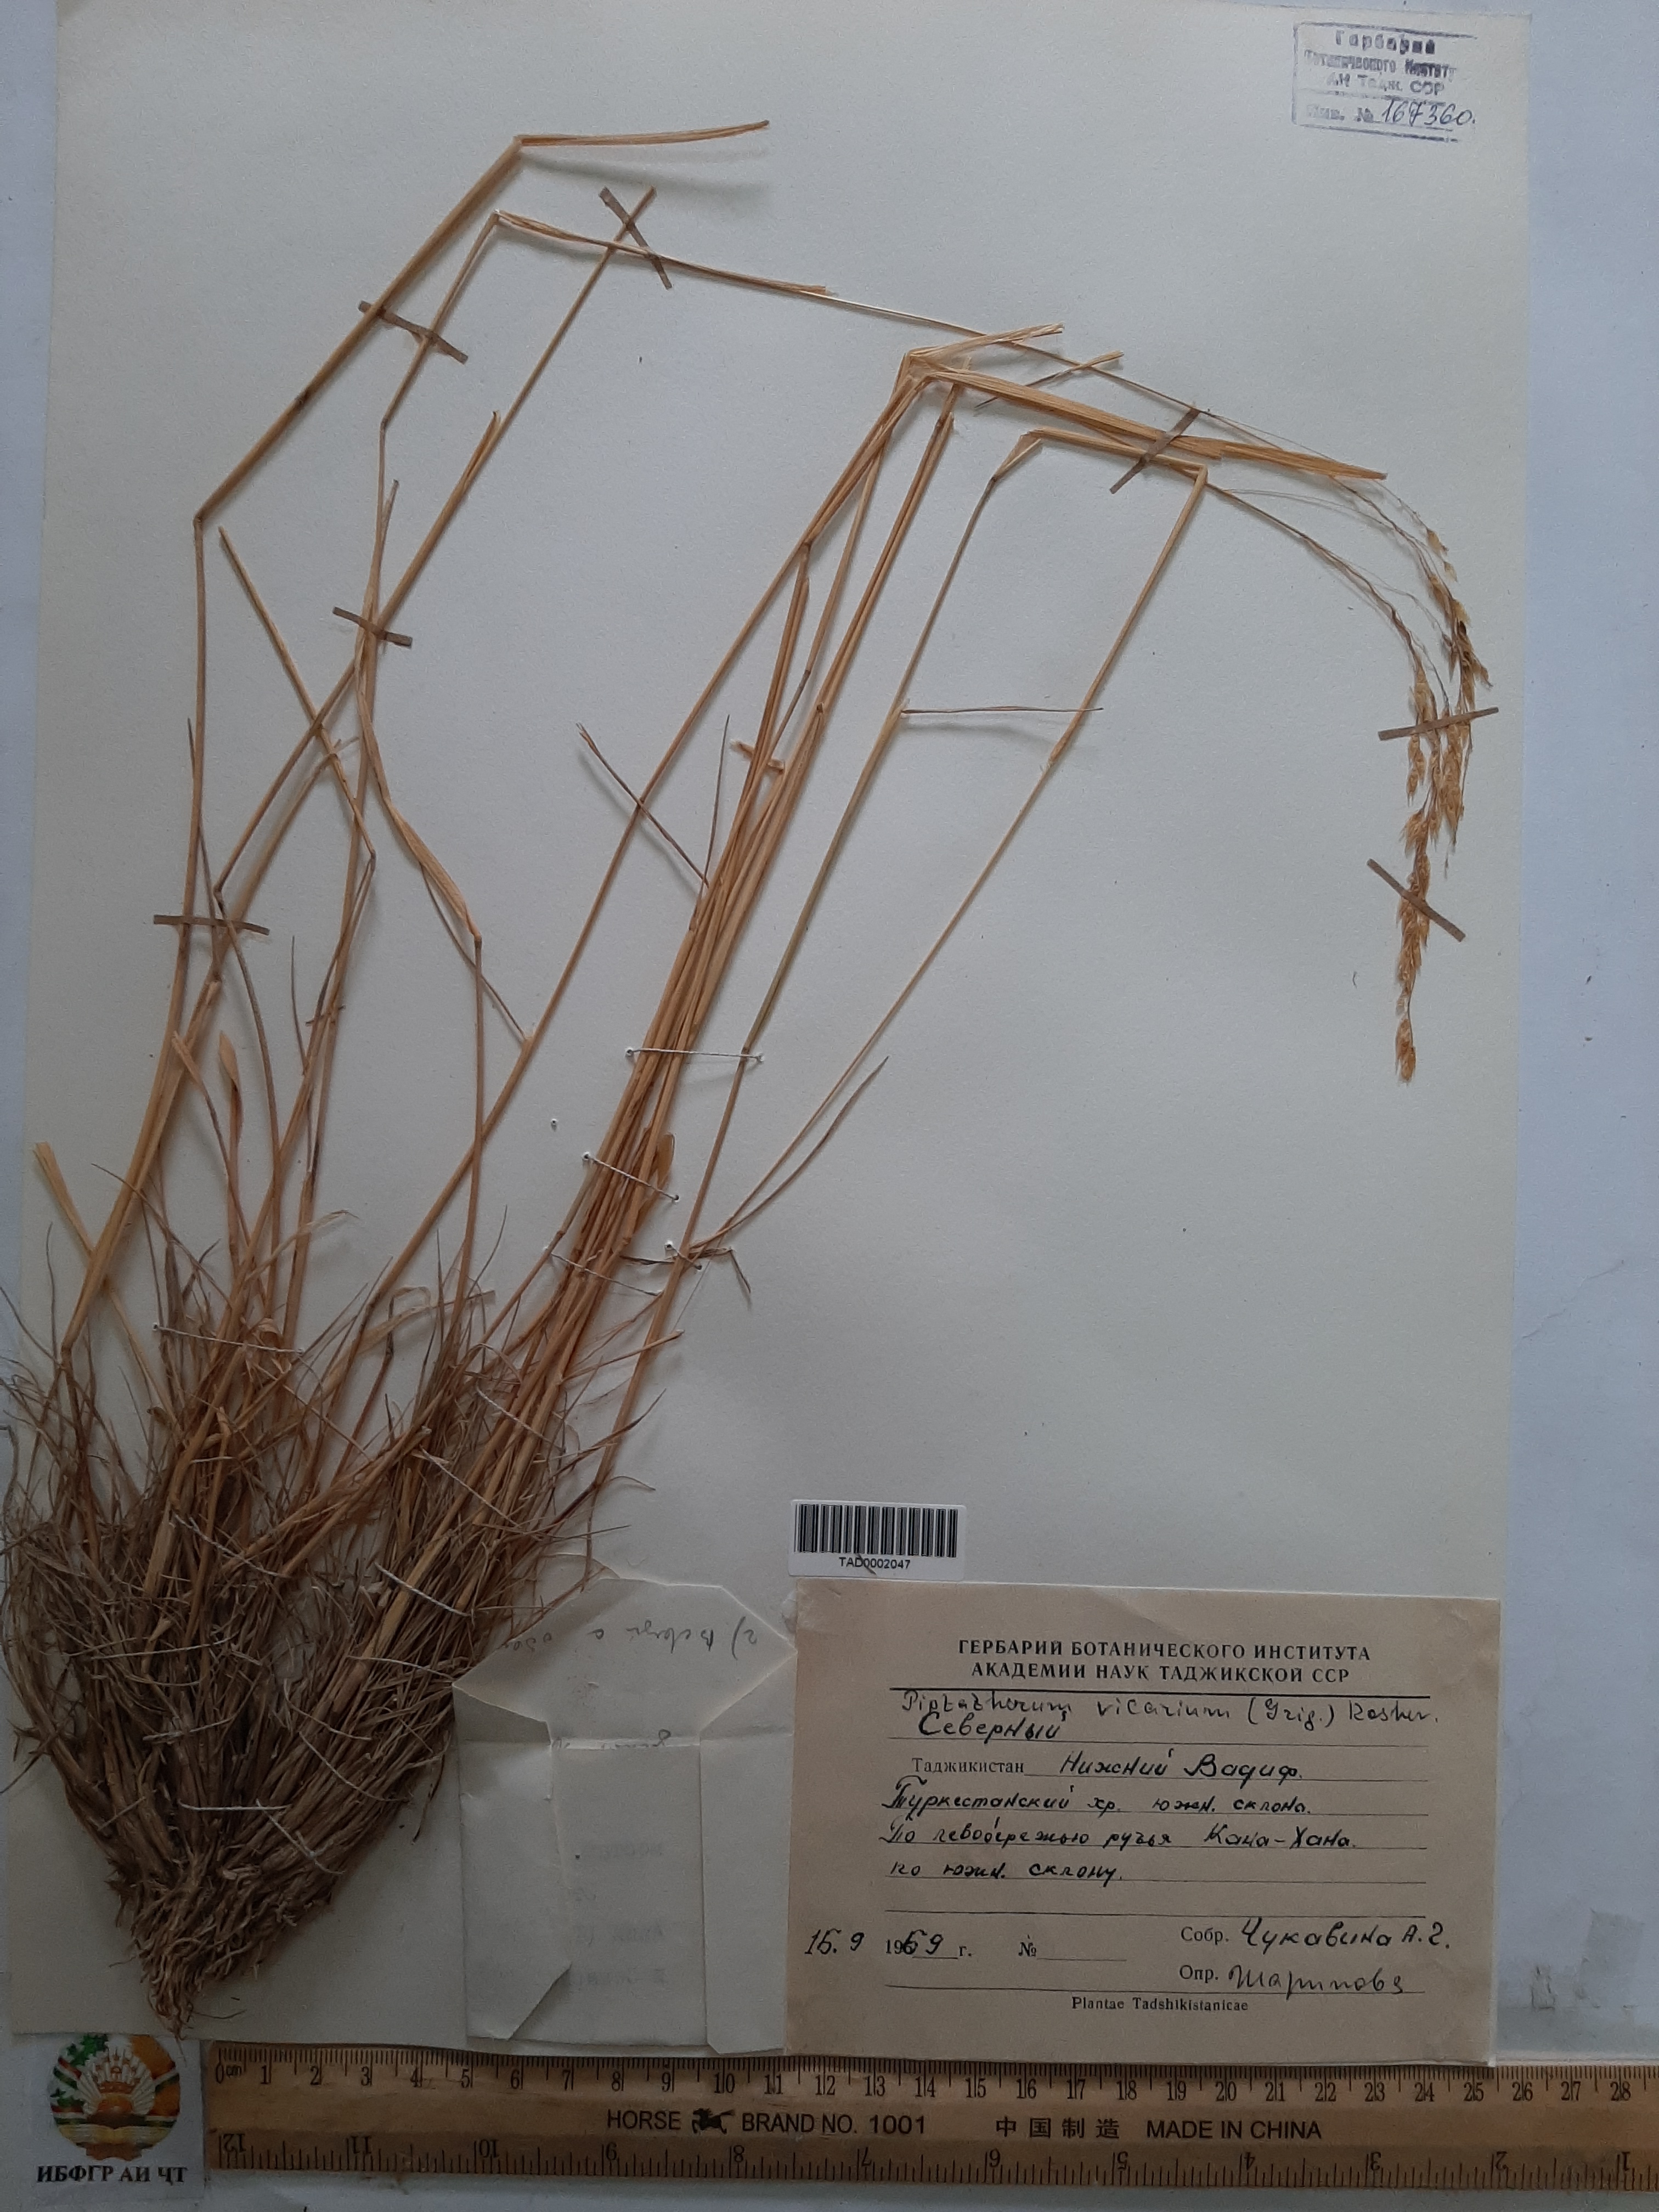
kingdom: Plantae
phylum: Tracheophyta
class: Liliopsida
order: Poales
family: Poaceae
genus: Piptatherum
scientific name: Piptatherum sogdianum
